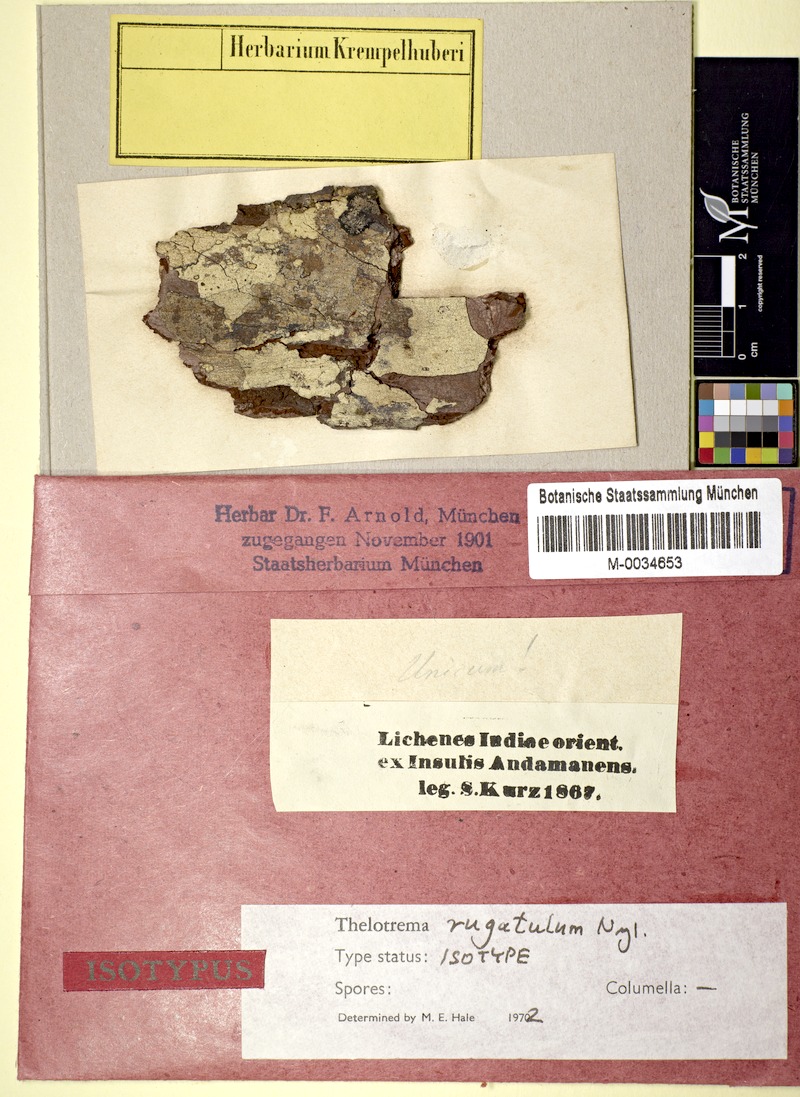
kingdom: Fungi
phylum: Ascomycota
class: Lecanoromycetes
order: Ostropales
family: Graphidaceae
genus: Thelotrema
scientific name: Thelotrema rugatulum
